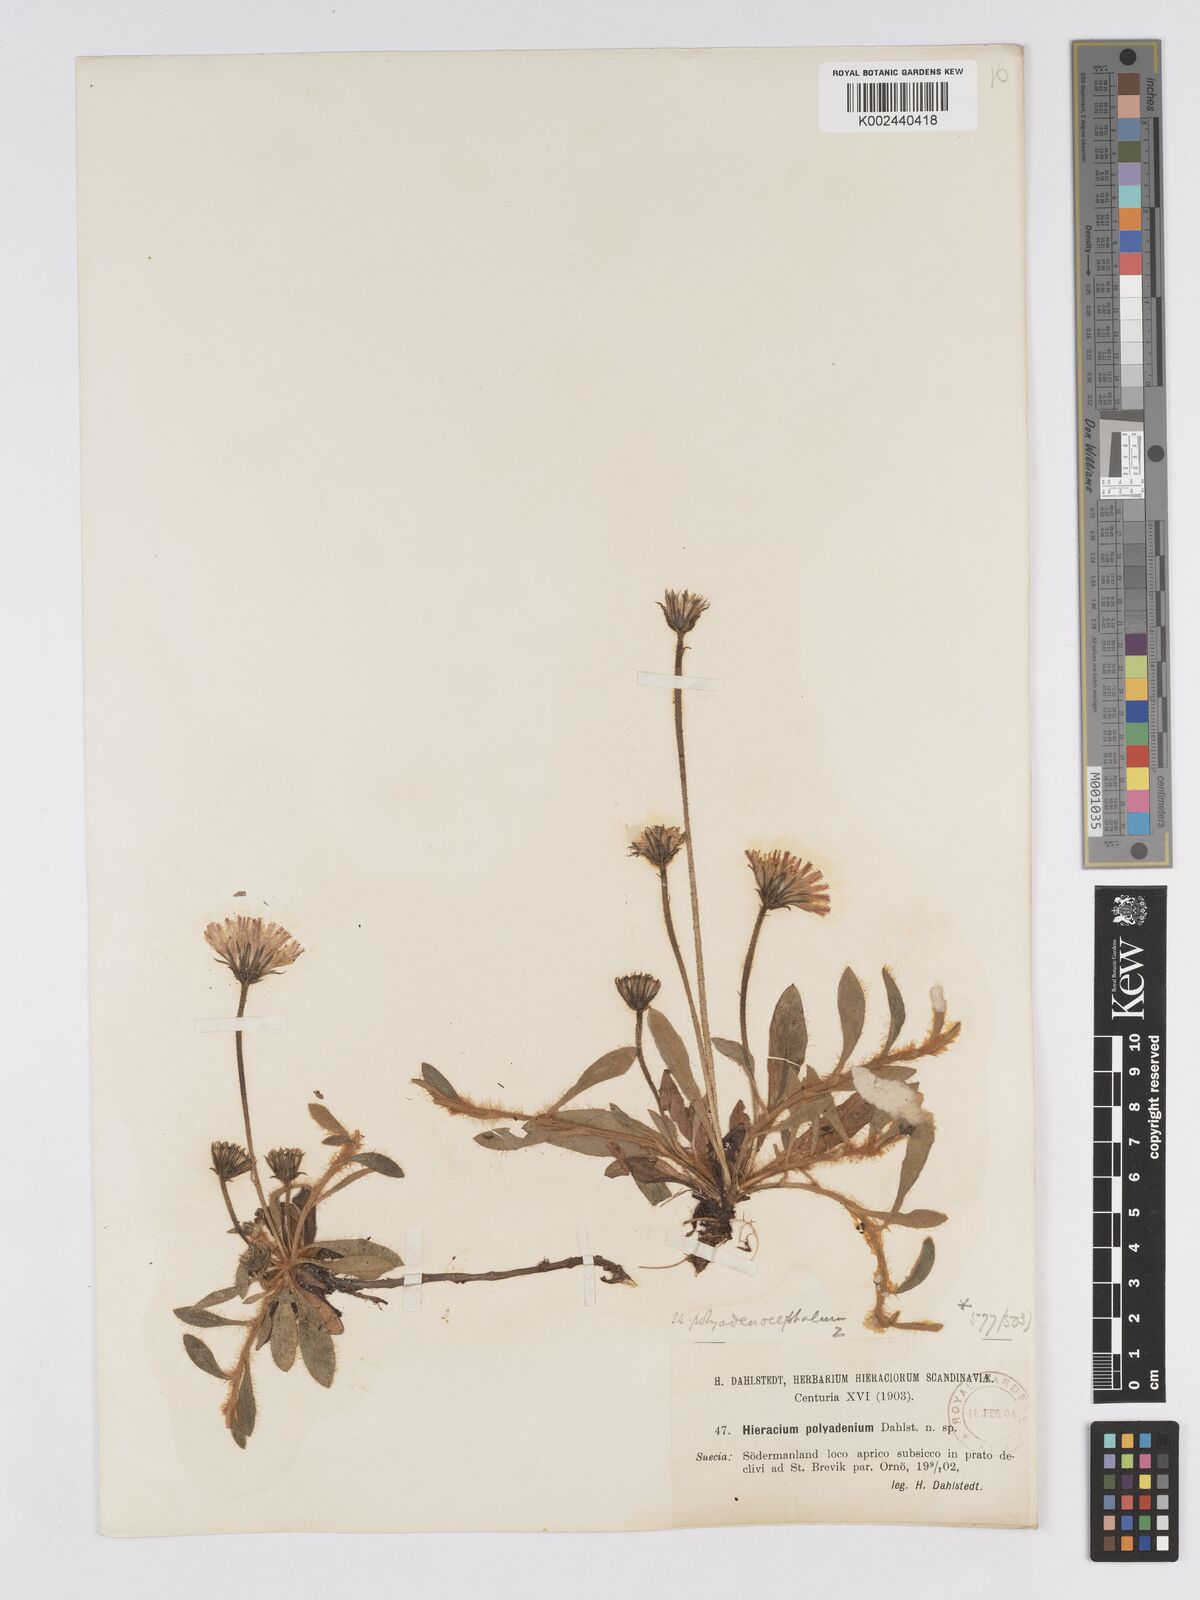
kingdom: Plantae
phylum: Tracheophyta
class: Magnoliopsida
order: Asterales
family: Asteraceae
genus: Hieracium
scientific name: Hieracium
